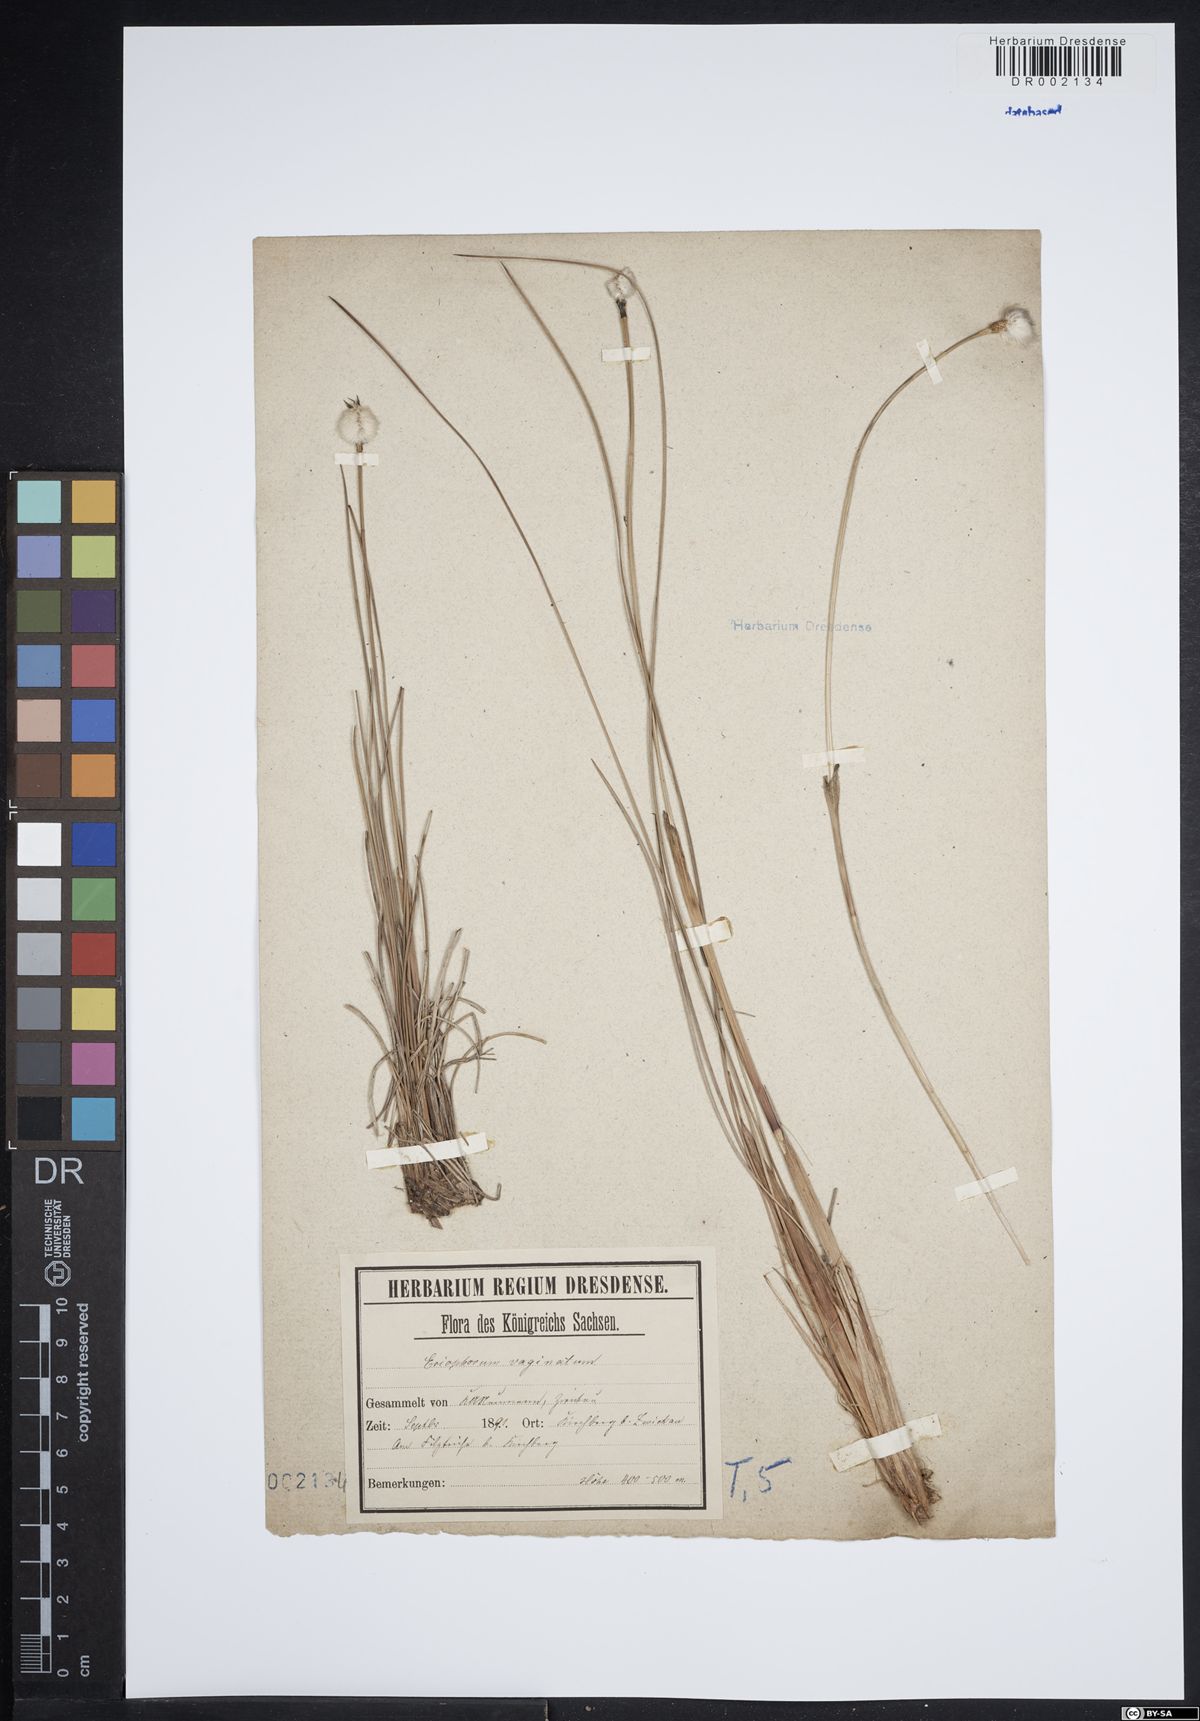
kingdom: Plantae
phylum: Tracheophyta
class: Liliopsida
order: Poales
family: Cyperaceae
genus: Eriophorum
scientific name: Eriophorum vaginatum
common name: Hare's-tail cottongrass
